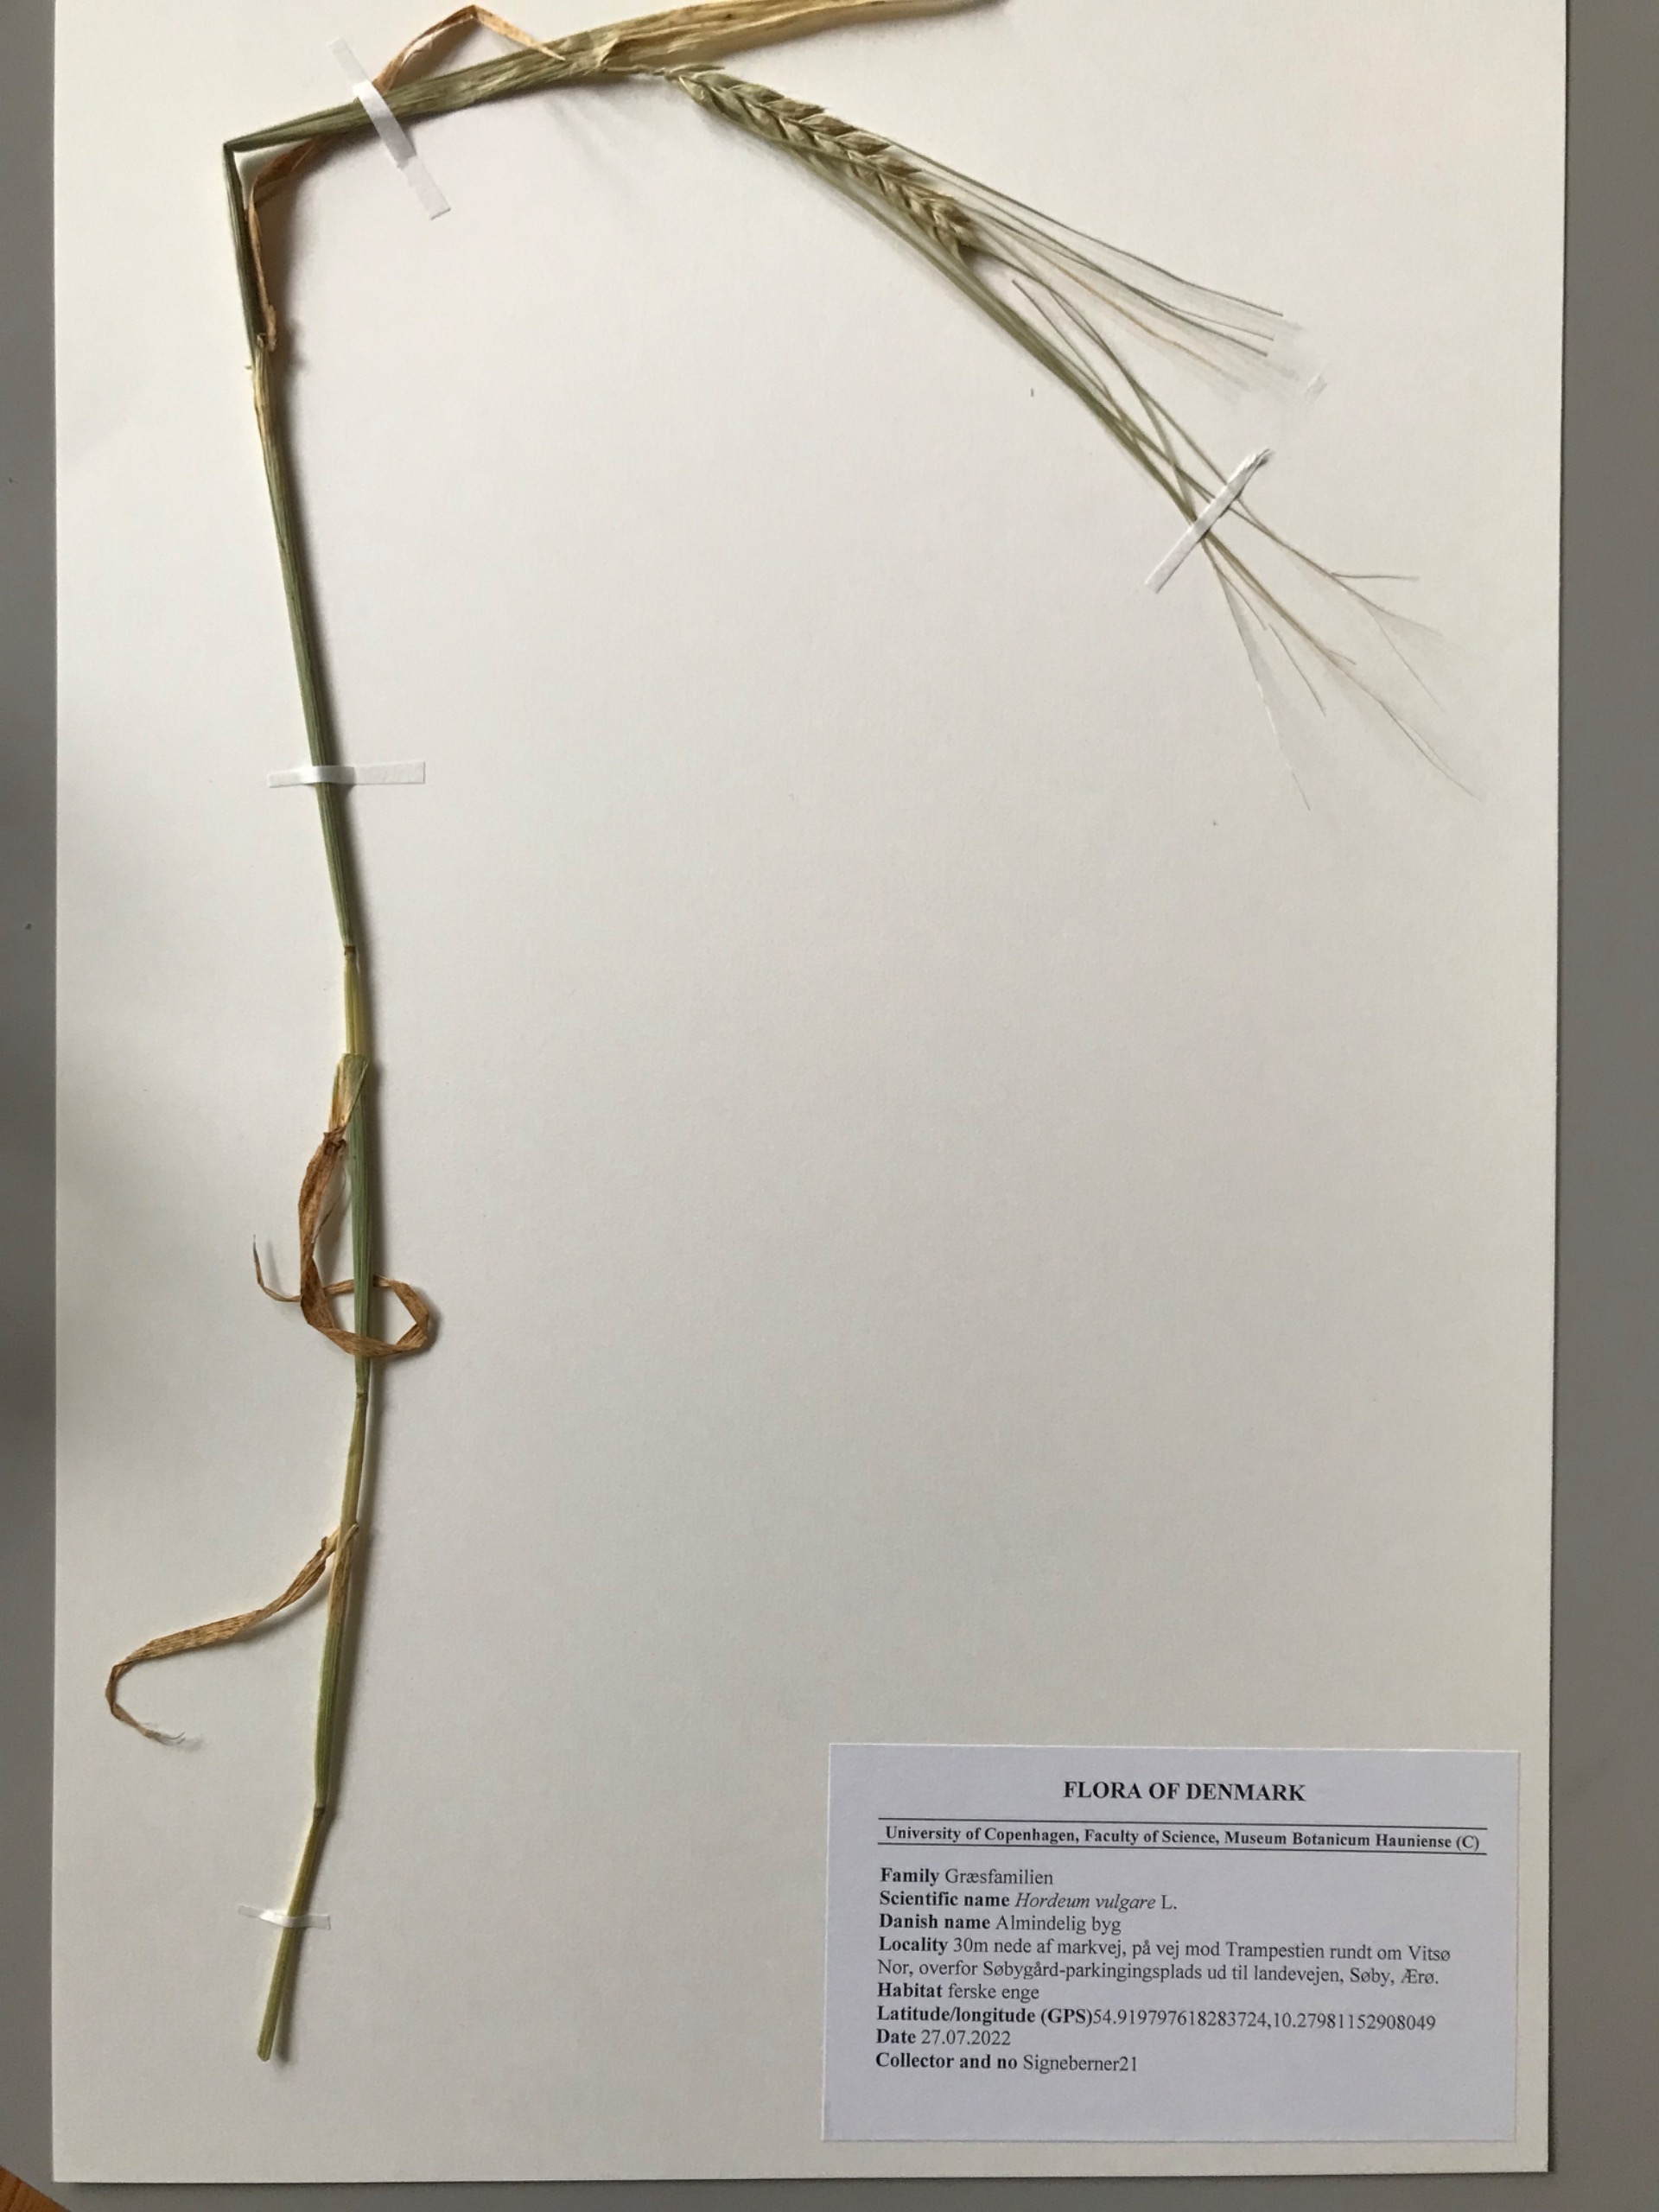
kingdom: Plantae
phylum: Tracheophyta
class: Liliopsida
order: Poales
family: Poaceae
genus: Hordeum
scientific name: Hordeum vulgare
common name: Almindelig byg
